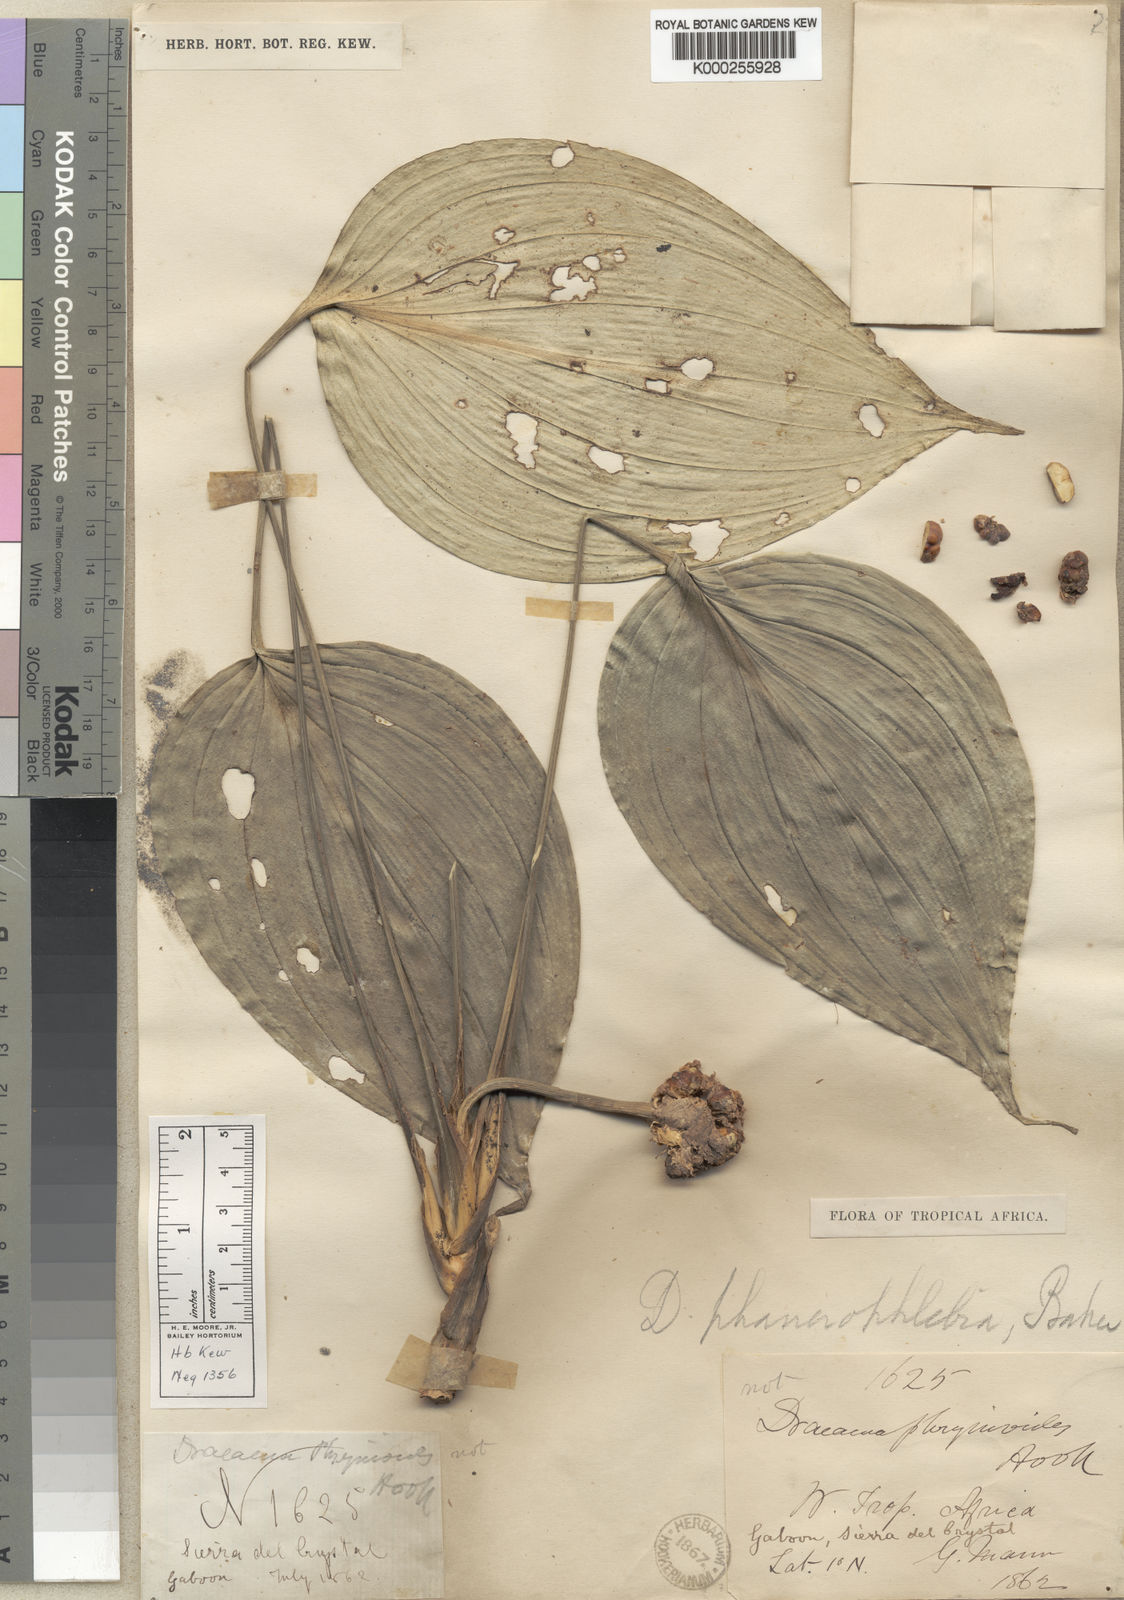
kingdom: Plantae
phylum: Tracheophyta
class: Liliopsida
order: Asparagales
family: Asparagaceae
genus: Dracaena
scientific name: Dracaena phanerophlebia
